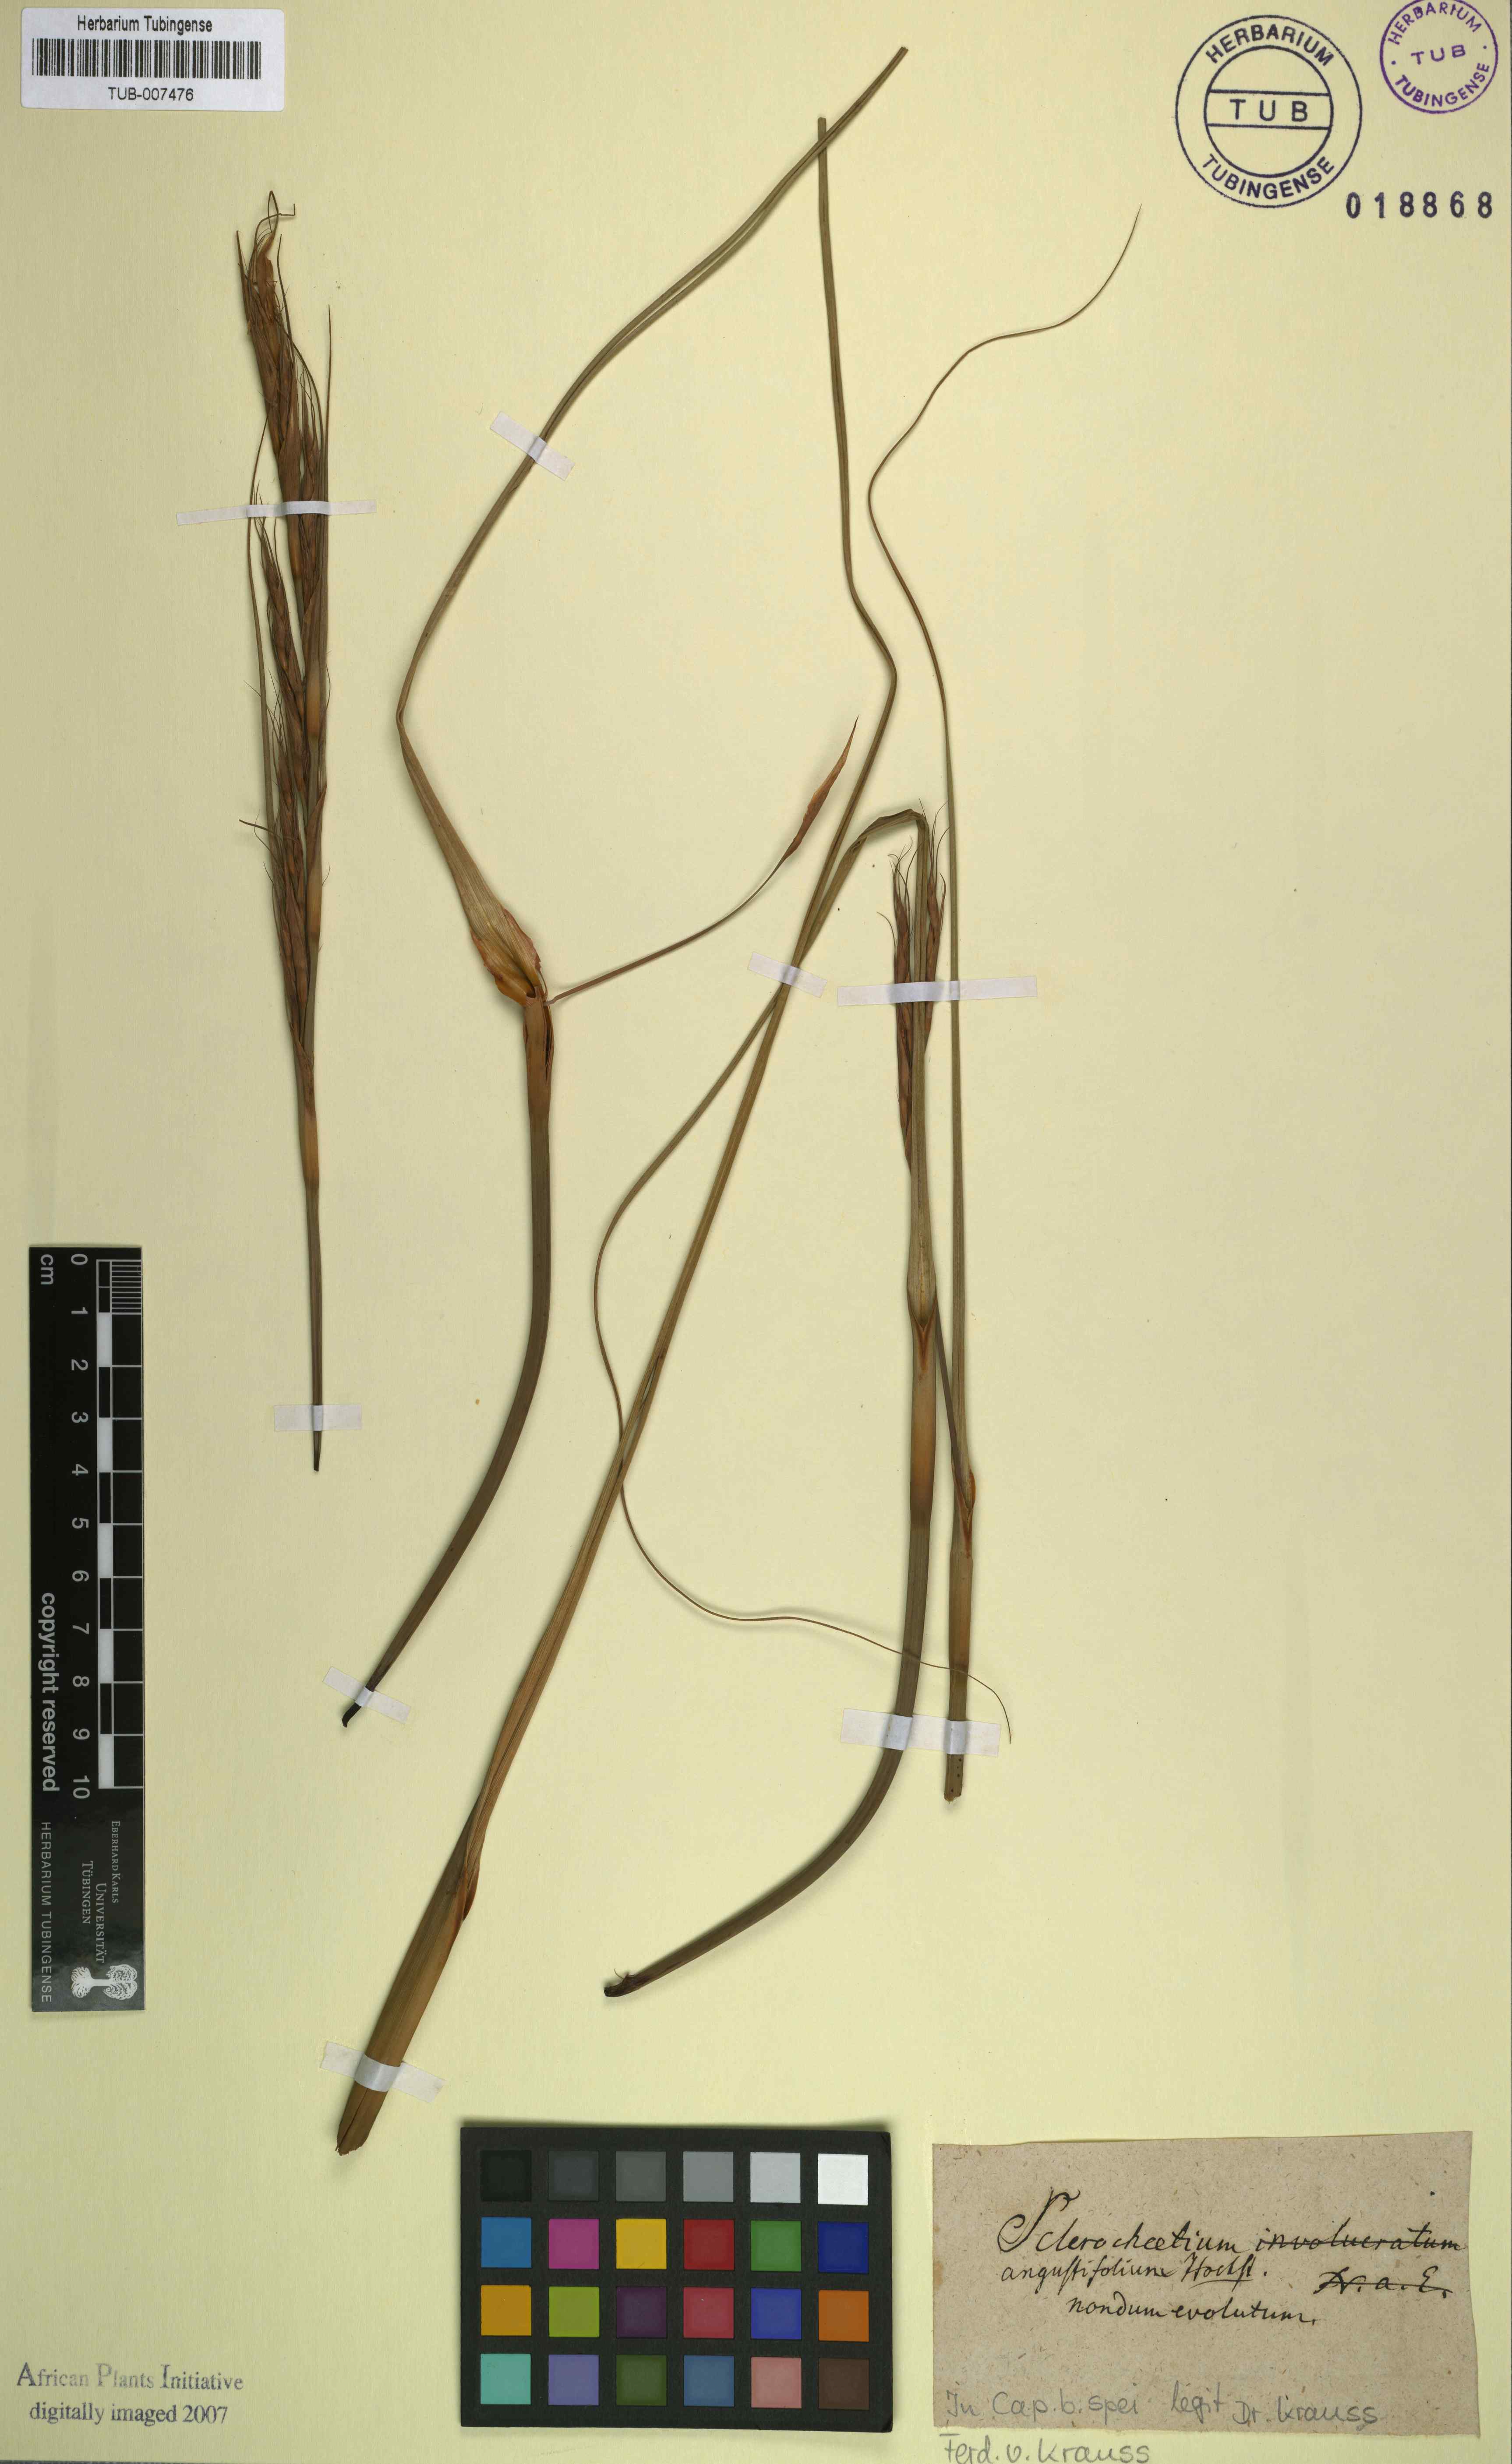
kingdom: Plantae
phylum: Tracheophyta
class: Liliopsida
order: Poales
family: Cyperaceae
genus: Tetraria
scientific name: Tetraria bromoides
